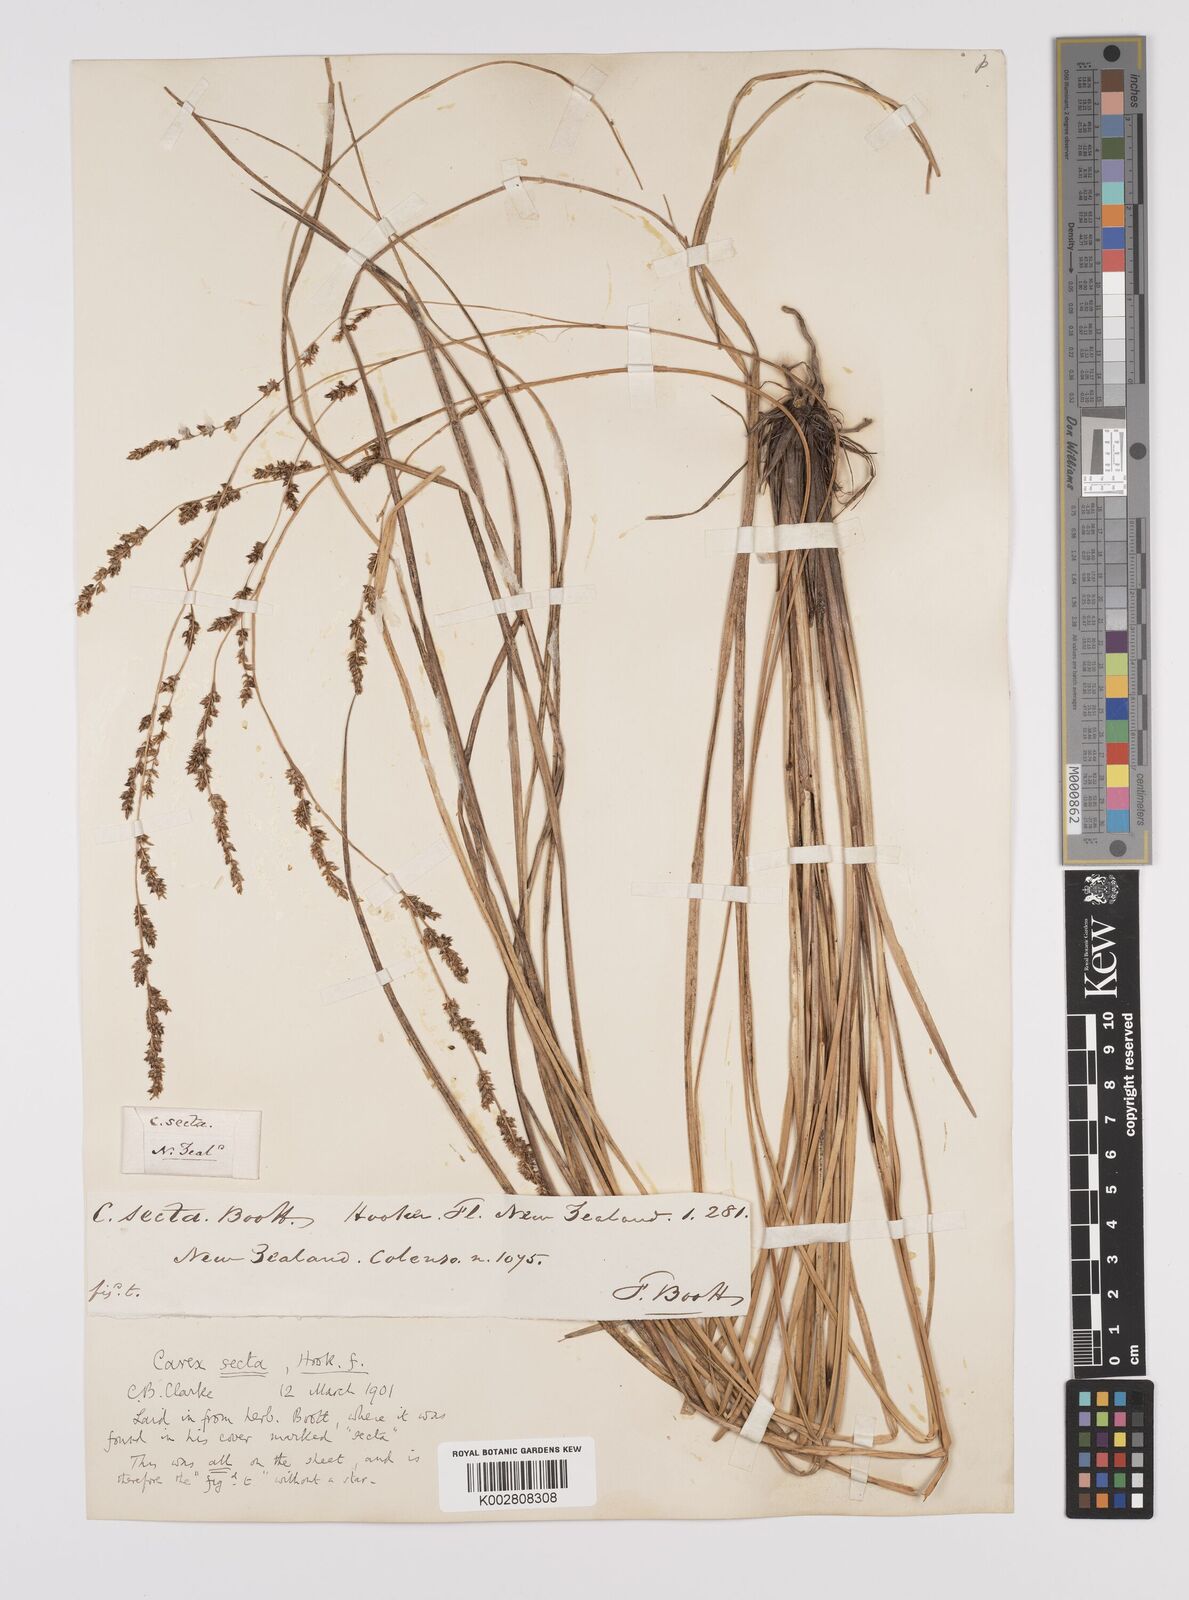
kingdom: Plantae
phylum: Tracheophyta
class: Liliopsida
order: Poales
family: Cyperaceae
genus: Carex
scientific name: Carex appressa
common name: Tussock sedge
